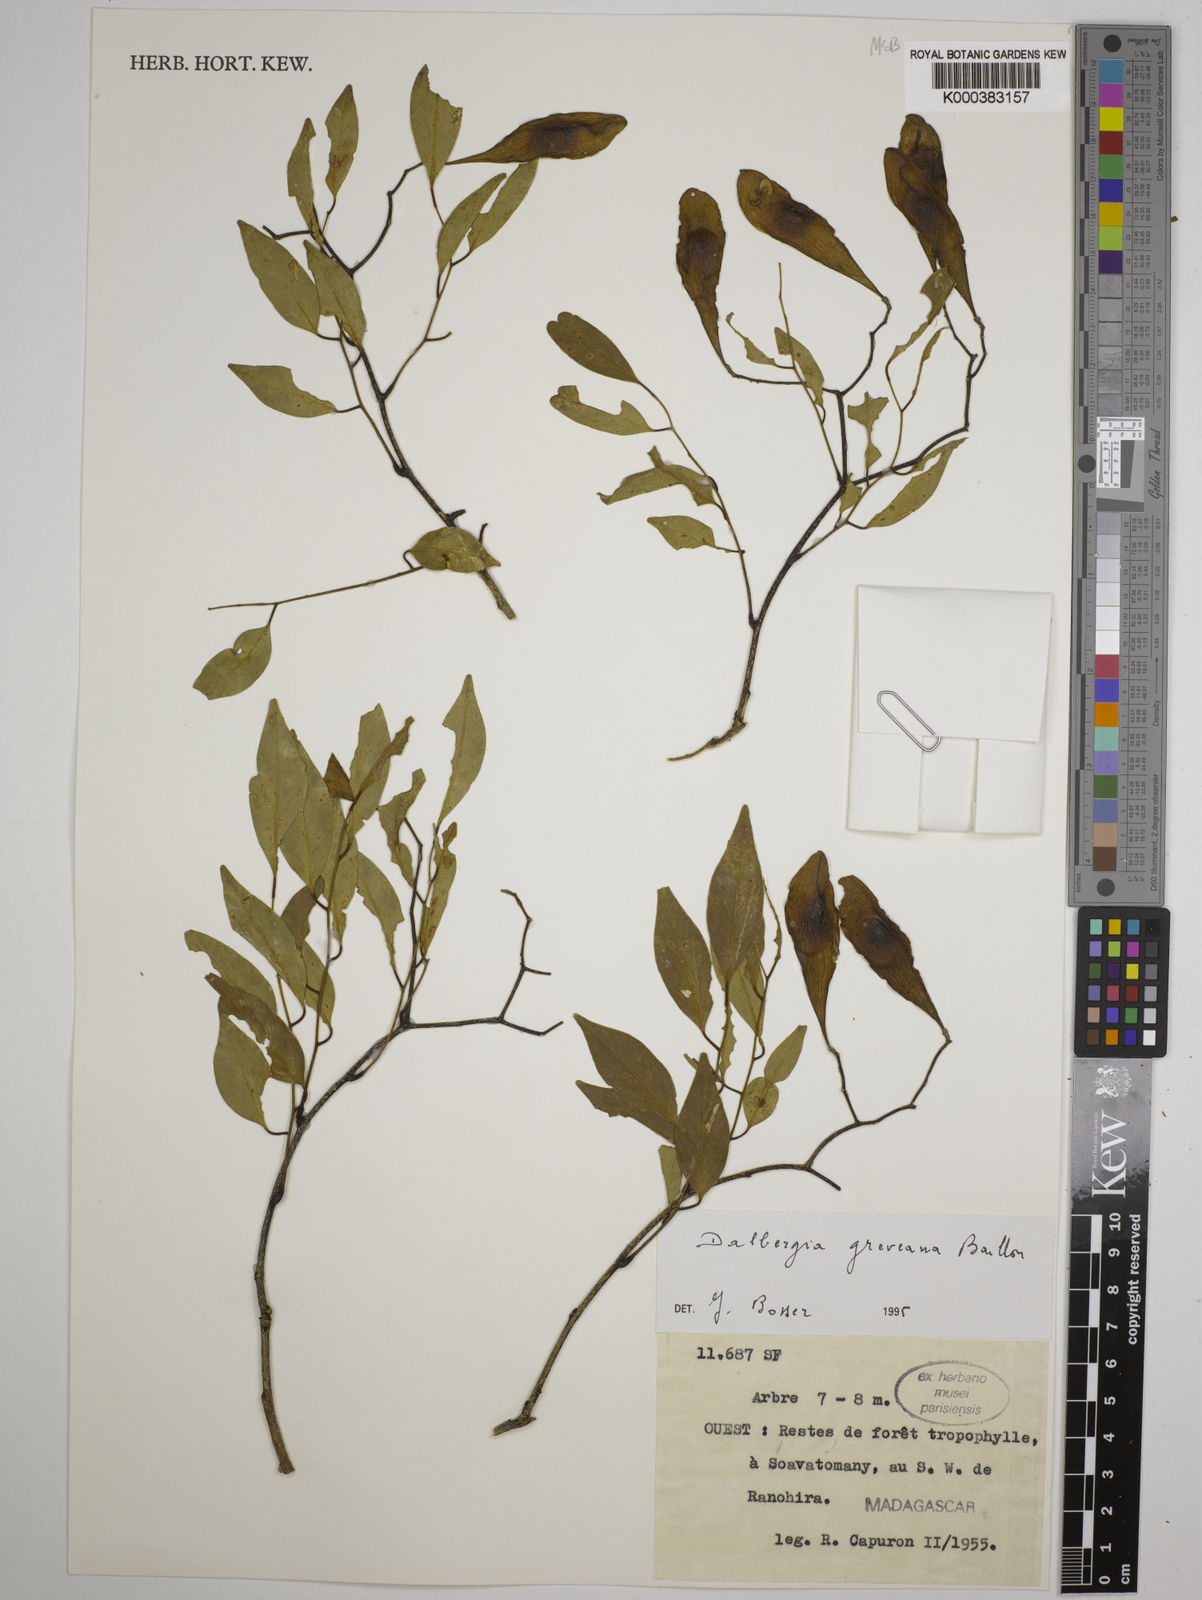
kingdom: Plantae
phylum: Tracheophyta
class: Magnoliopsida
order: Fabales
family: Fabaceae
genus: Dalbergia
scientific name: Dalbergia greveana
